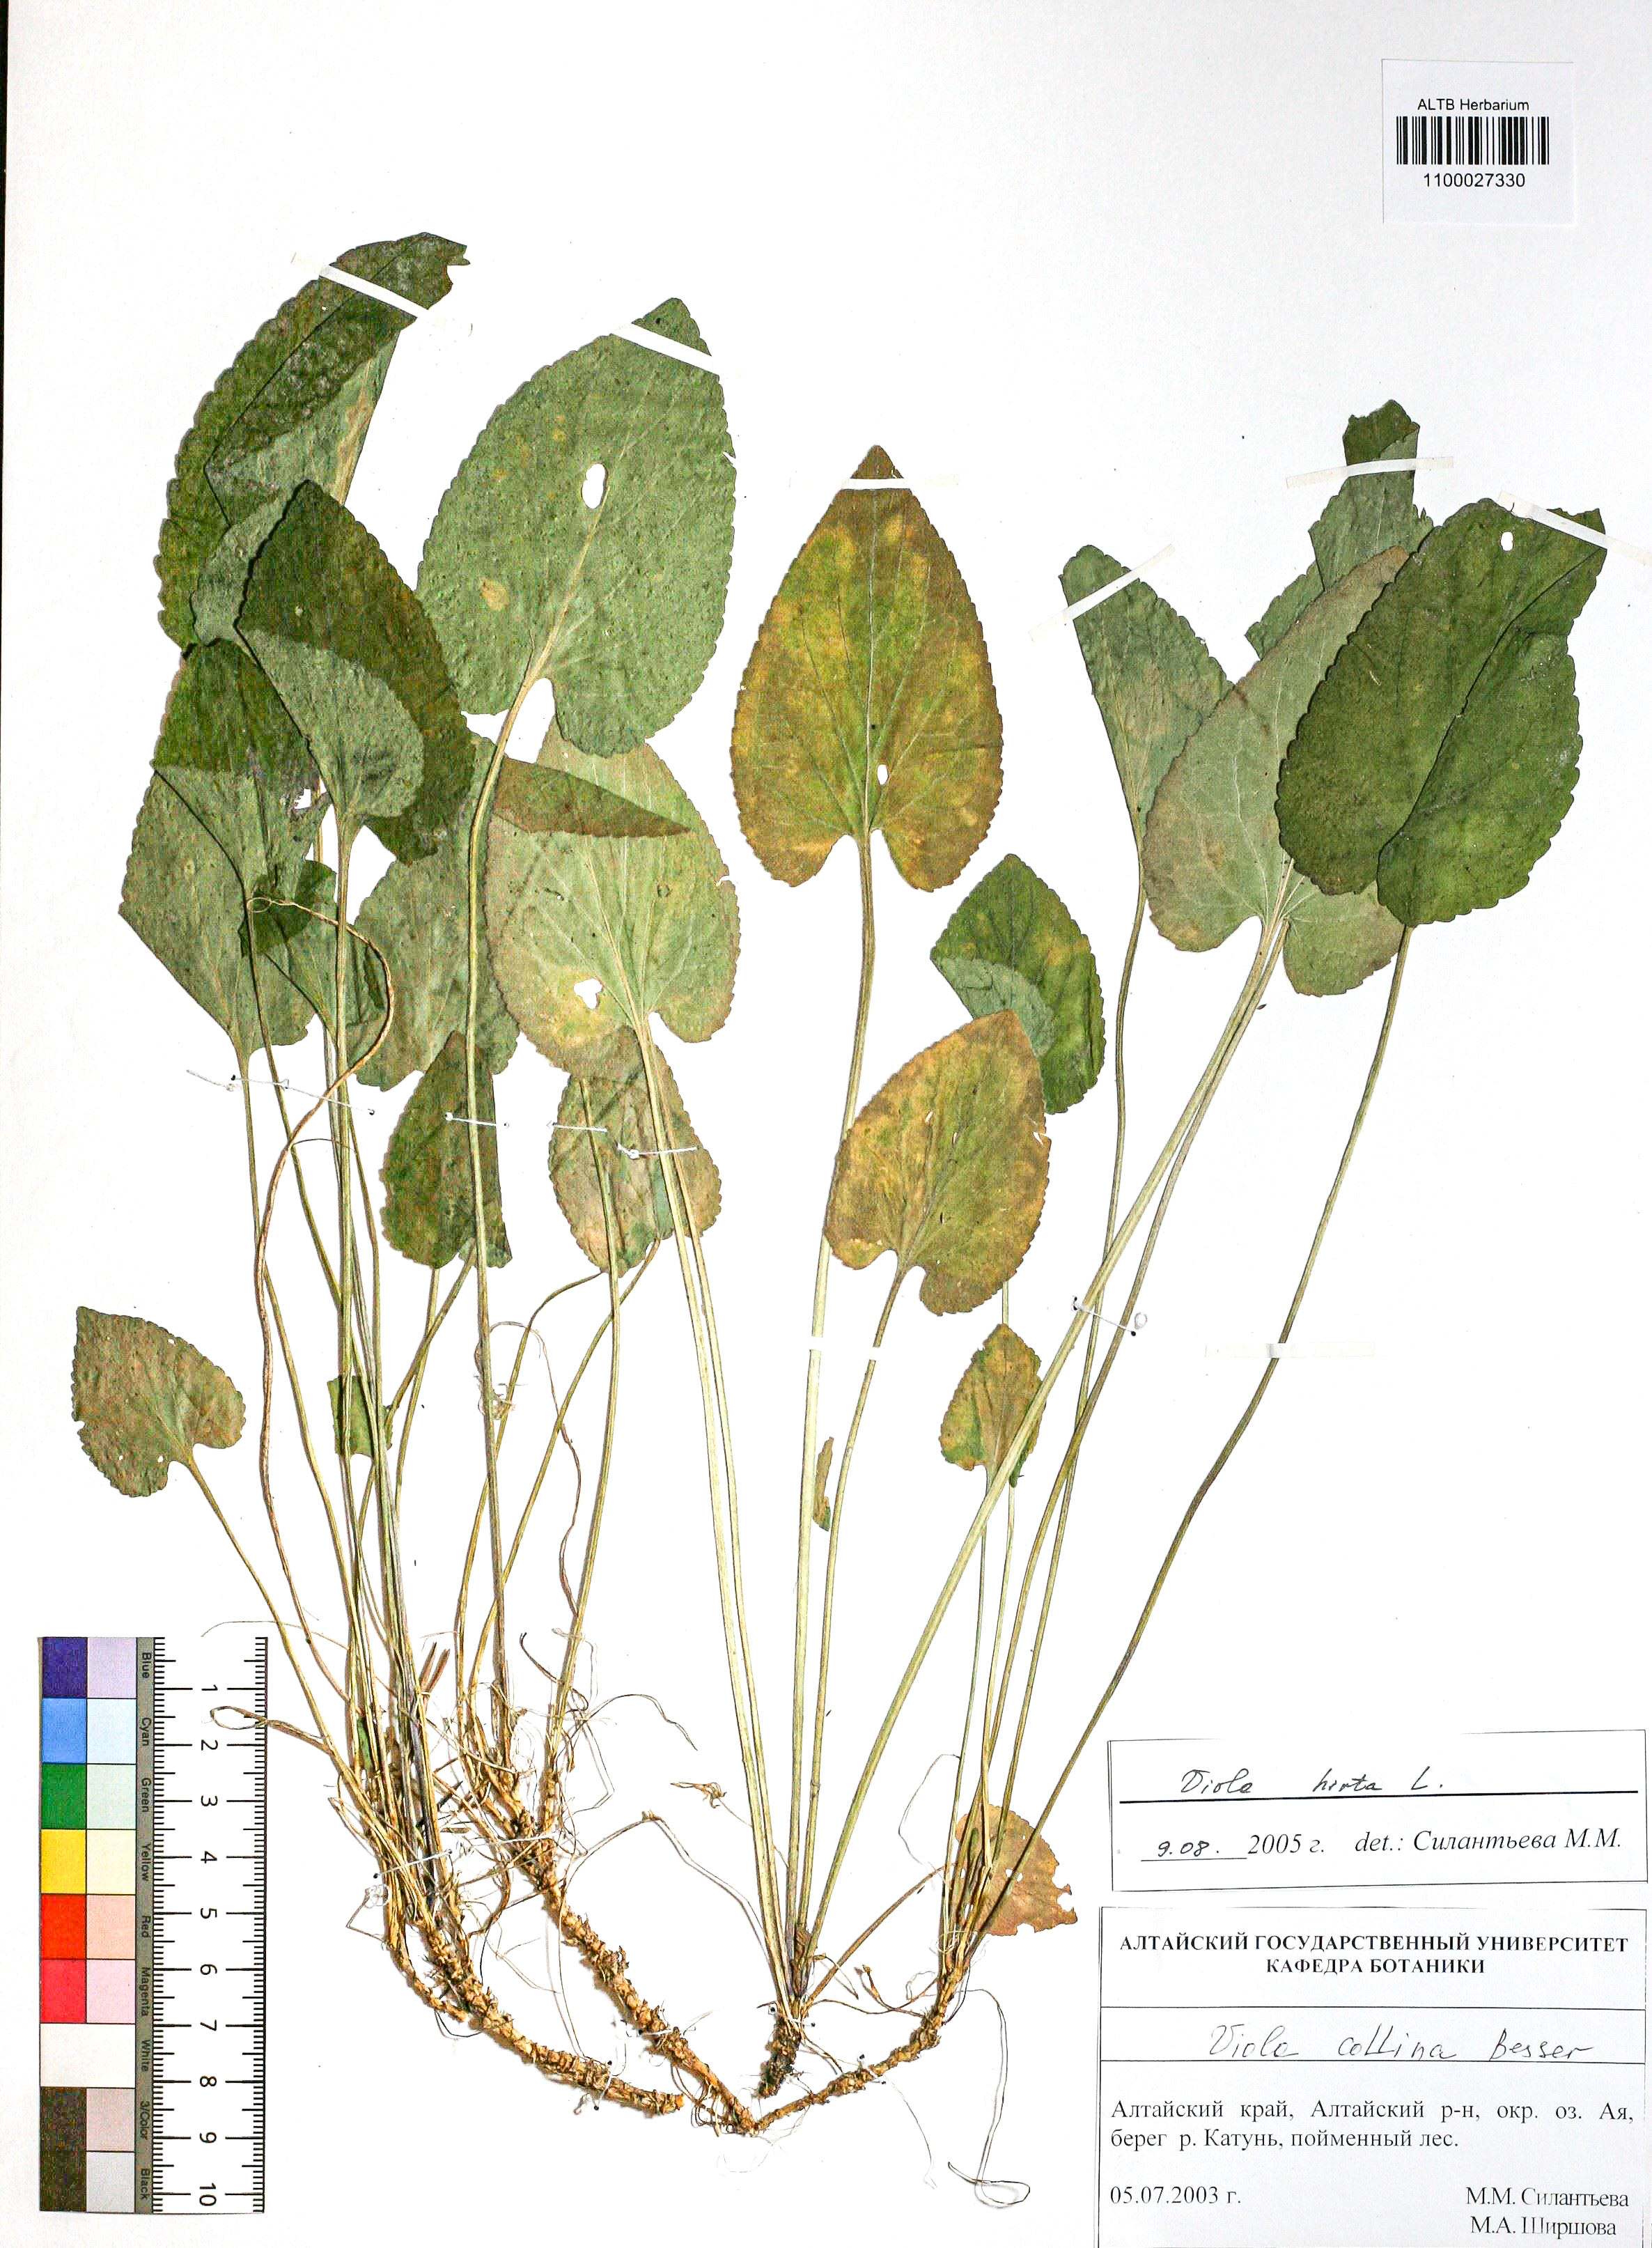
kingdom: Plantae
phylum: Tracheophyta
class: Magnoliopsida
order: Malpighiales
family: Violaceae
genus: Viola
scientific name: Viola hirta
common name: Hairy violet
